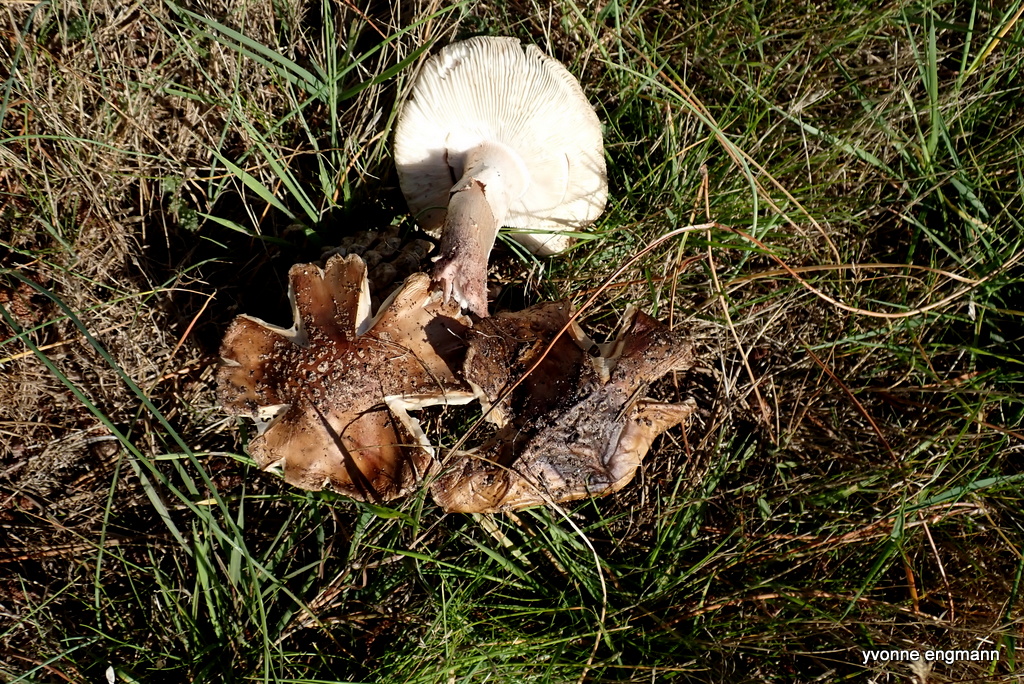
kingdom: Fungi
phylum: Basidiomycota
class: Agaricomycetes
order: Agaricales
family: Amanitaceae
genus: Amanita
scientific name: Amanita rubescens
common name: rødmende fluesvamp
